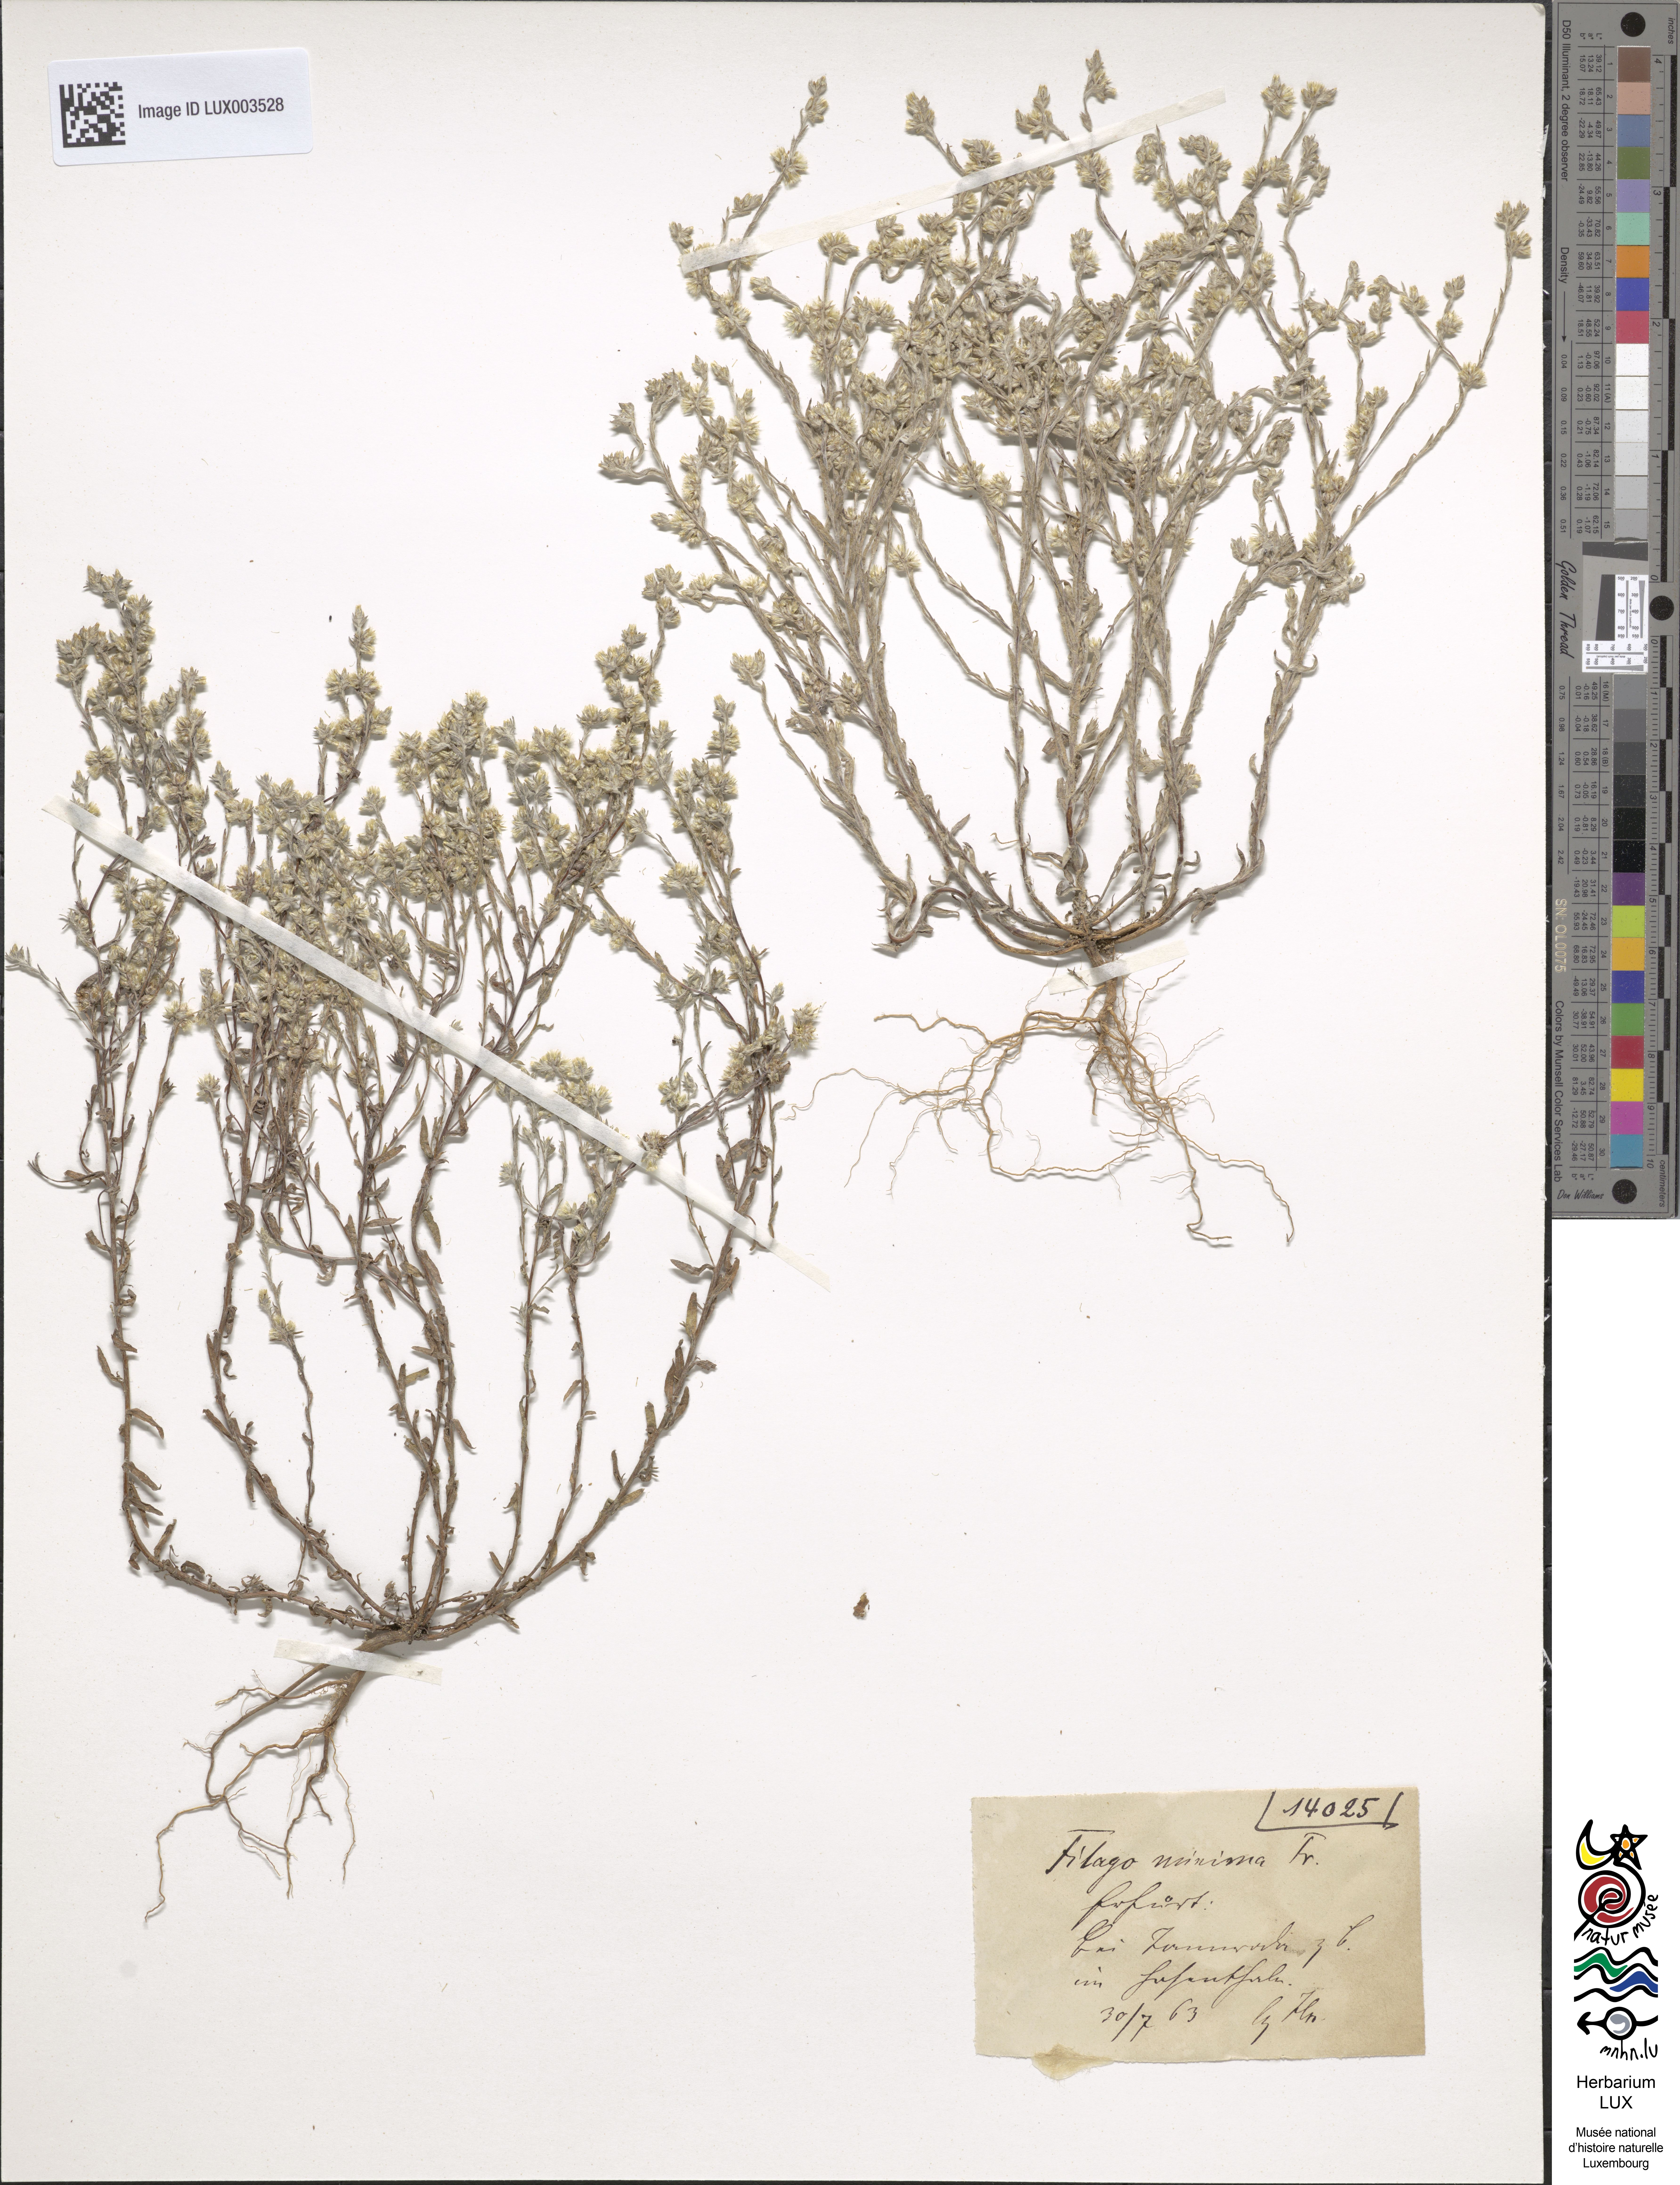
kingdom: Plantae
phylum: Tracheophyta
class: Magnoliopsida
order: Asterales
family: Asteraceae
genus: Logfia
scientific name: Logfia minima
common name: Little cottonrose
